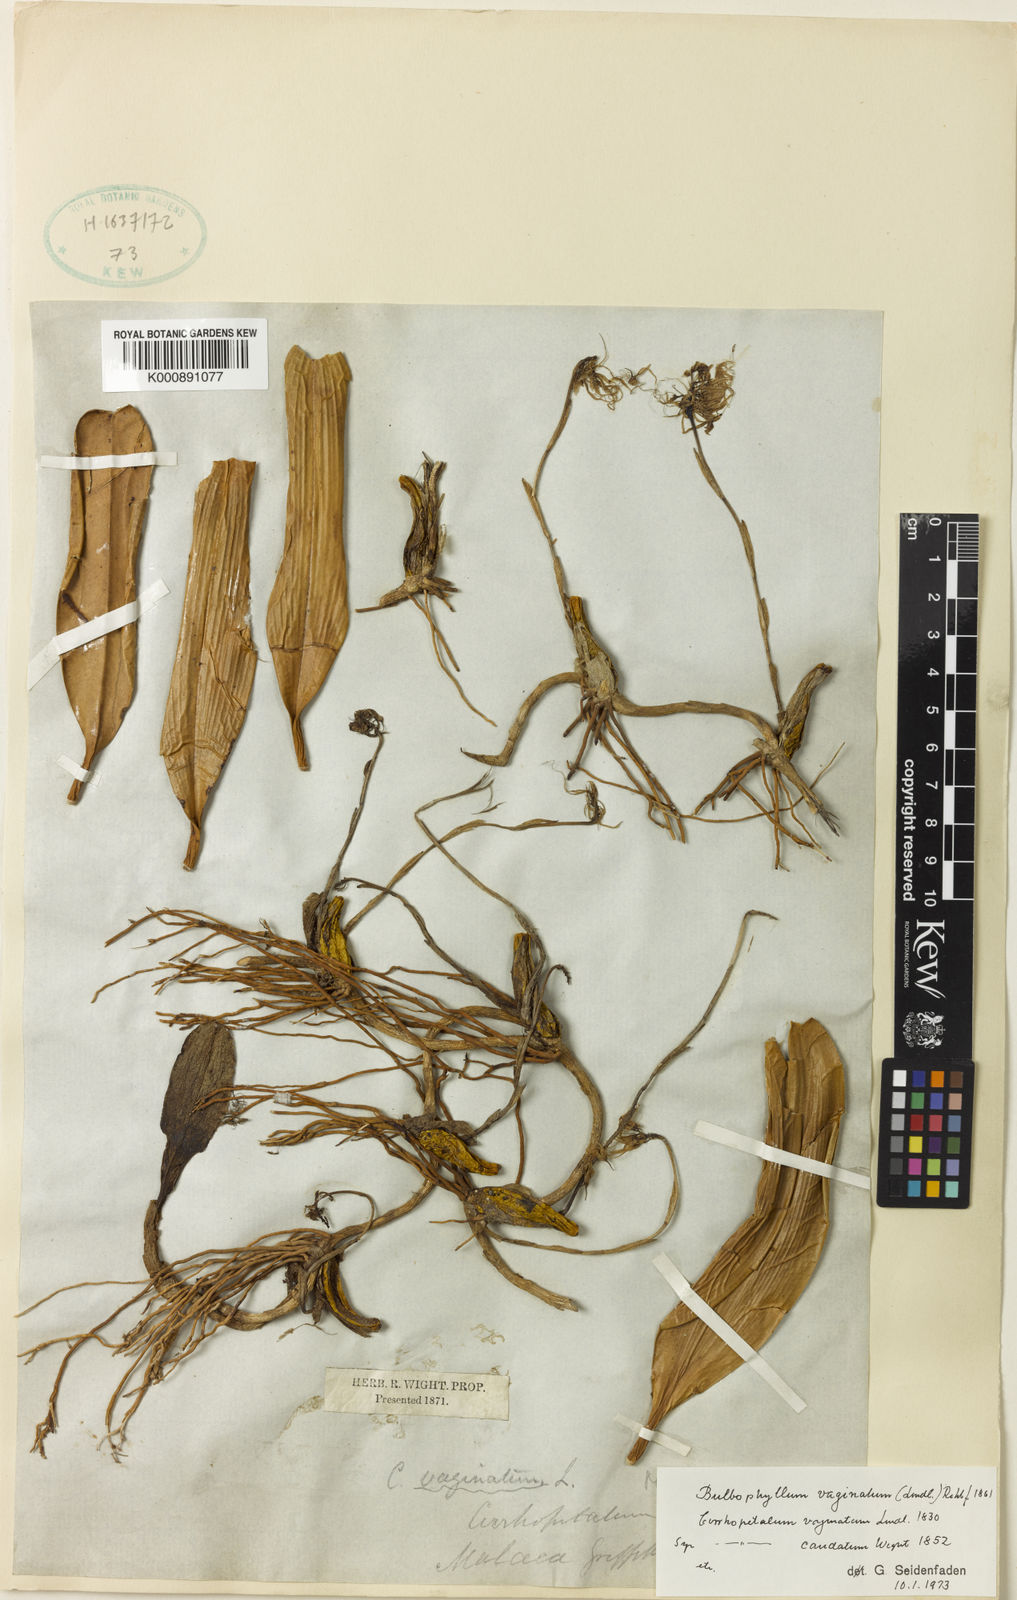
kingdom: Plantae
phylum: Tracheophyta
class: Liliopsida
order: Asparagales
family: Orchidaceae
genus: Bulbophyllum
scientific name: Bulbophyllum vaginatum
